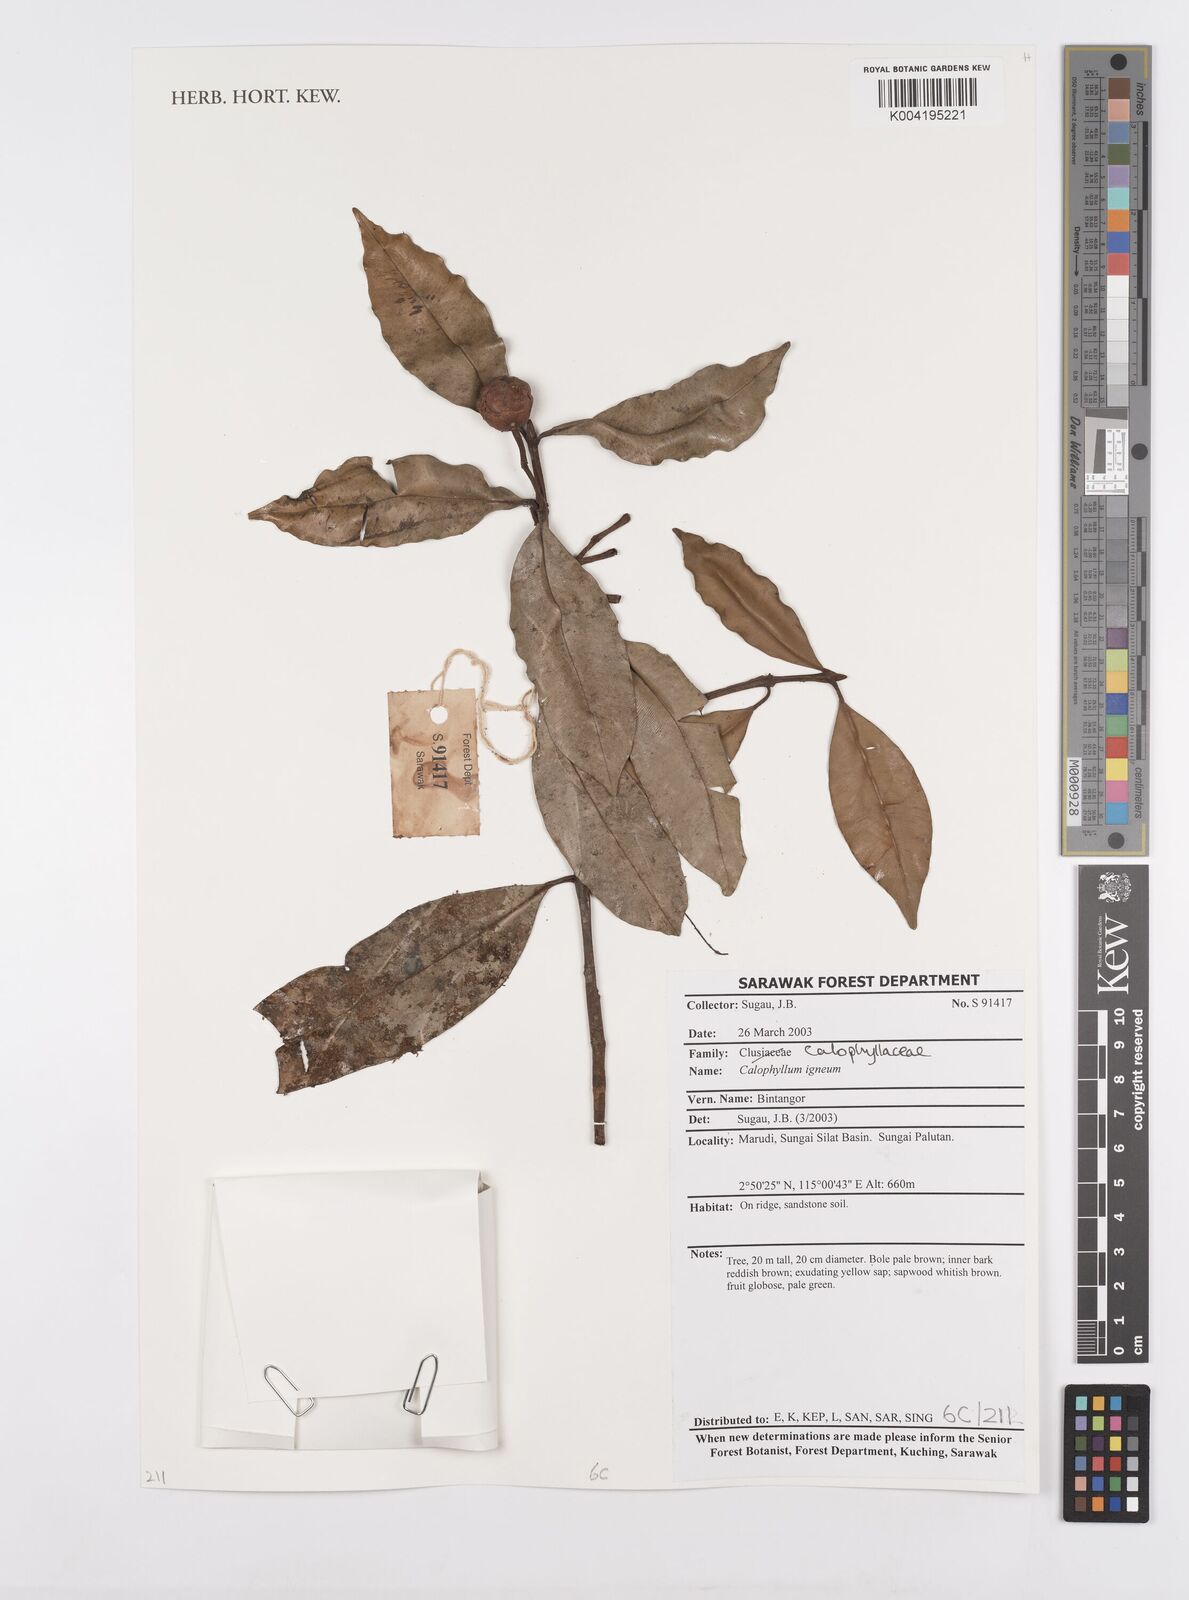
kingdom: Plantae
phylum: Tracheophyta
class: Magnoliopsida
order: Malpighiales
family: Calophyllaceae
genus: Calophyllum
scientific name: Calophyllum
